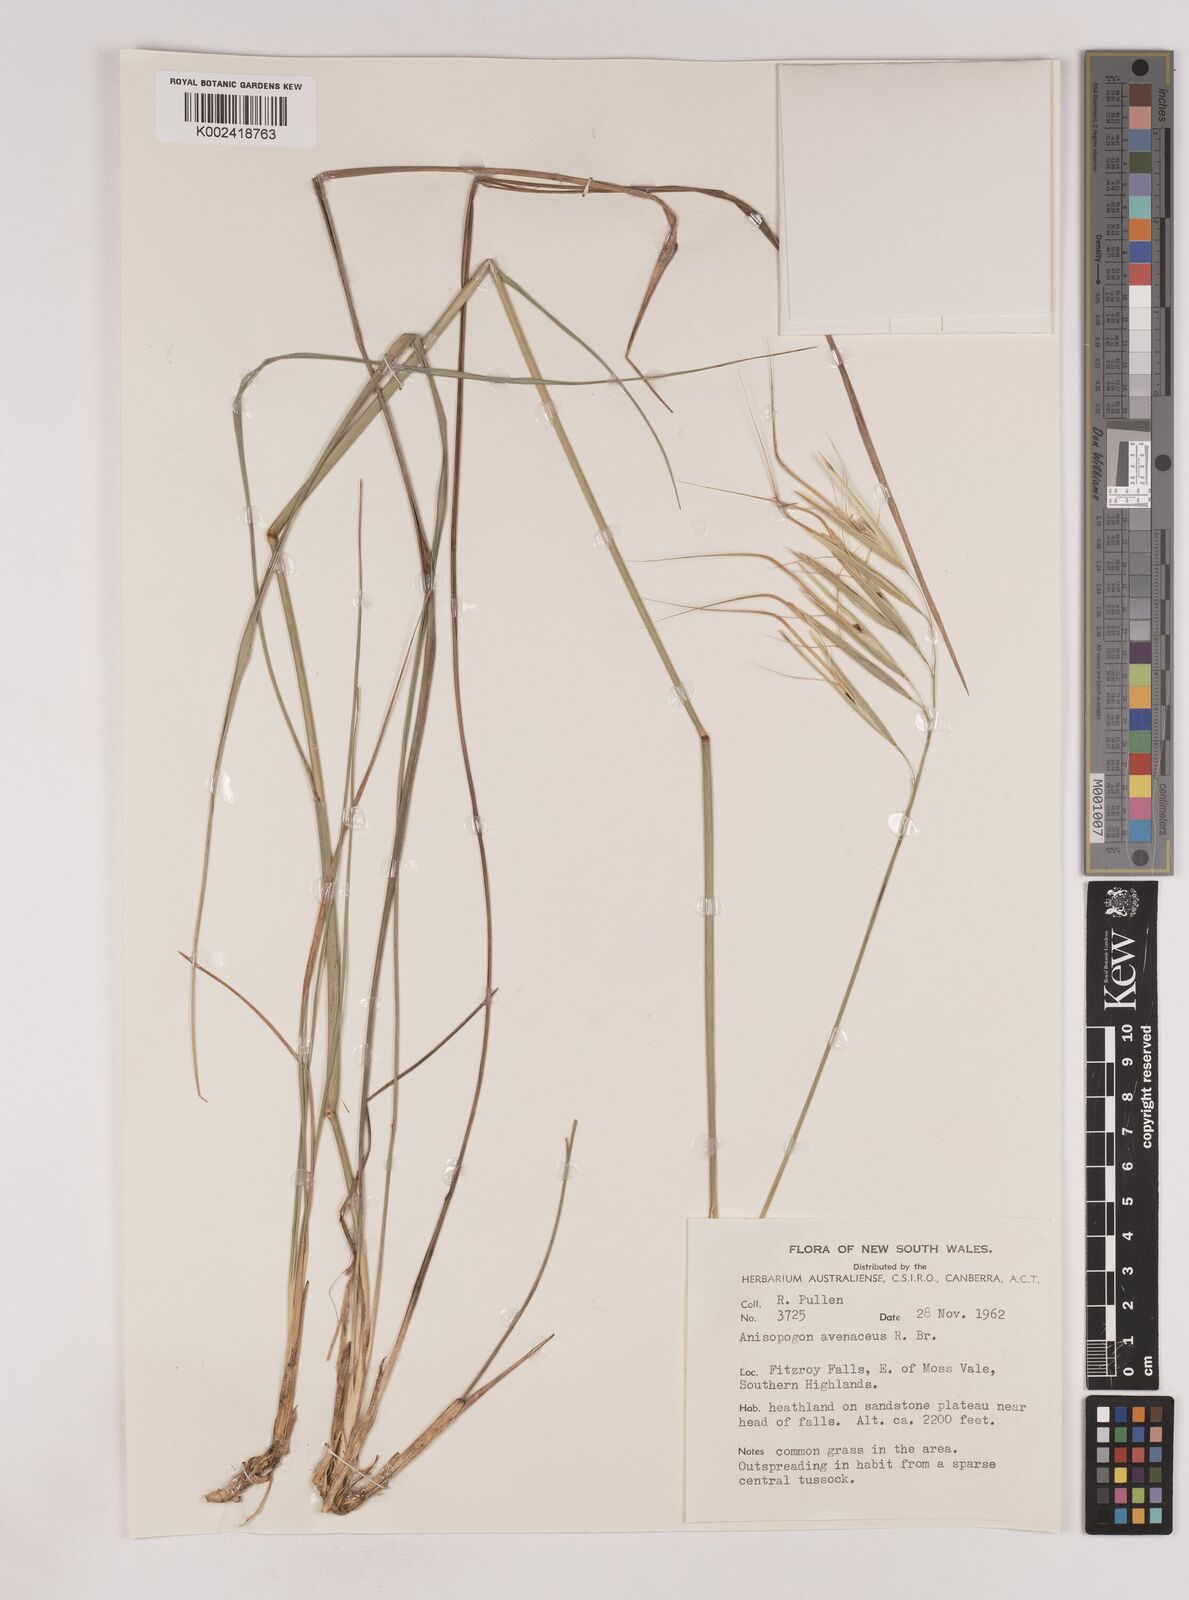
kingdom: Plantae
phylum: Tracheophyta
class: Liliopsida
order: Poales
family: Poaceae
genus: Anisopogon
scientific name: Anisopogon avenaceus
